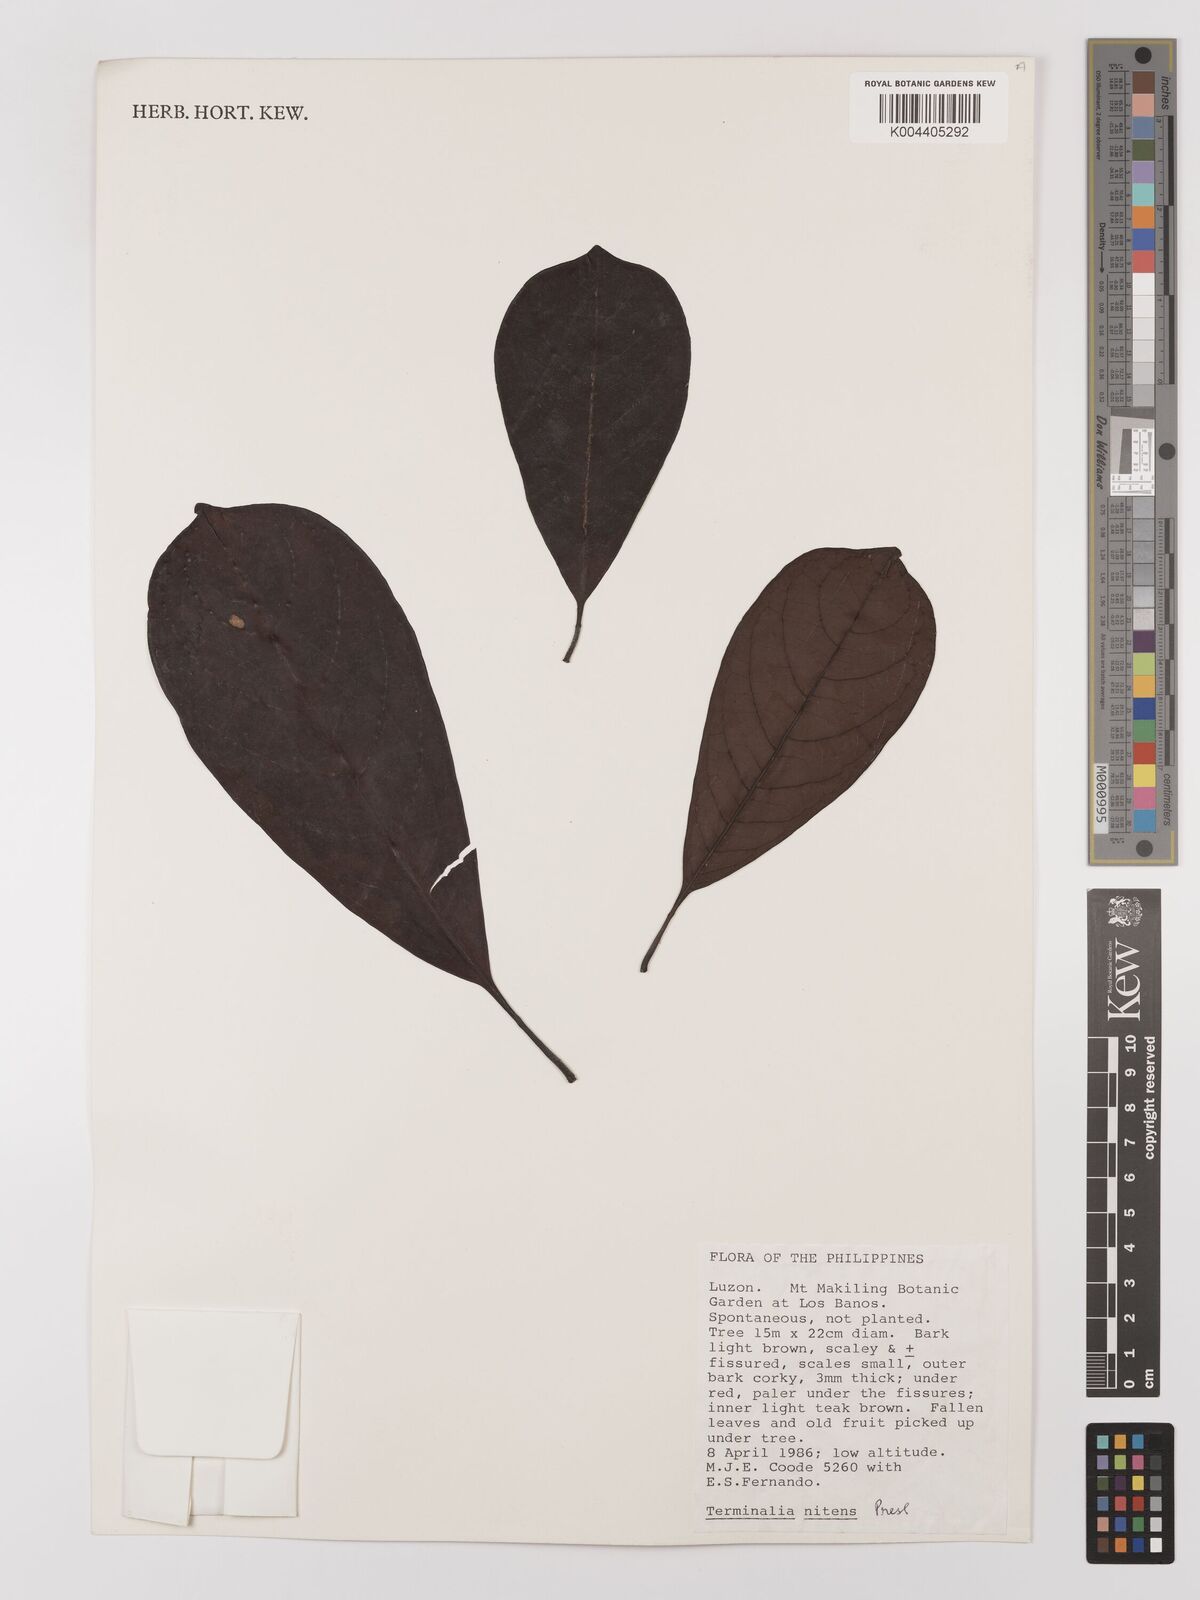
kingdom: Plantae
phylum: Tracheophyta
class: Magnoliopsida
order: Myrtales
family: Combretaceae
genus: Terminalia
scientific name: Terminalia nitens
